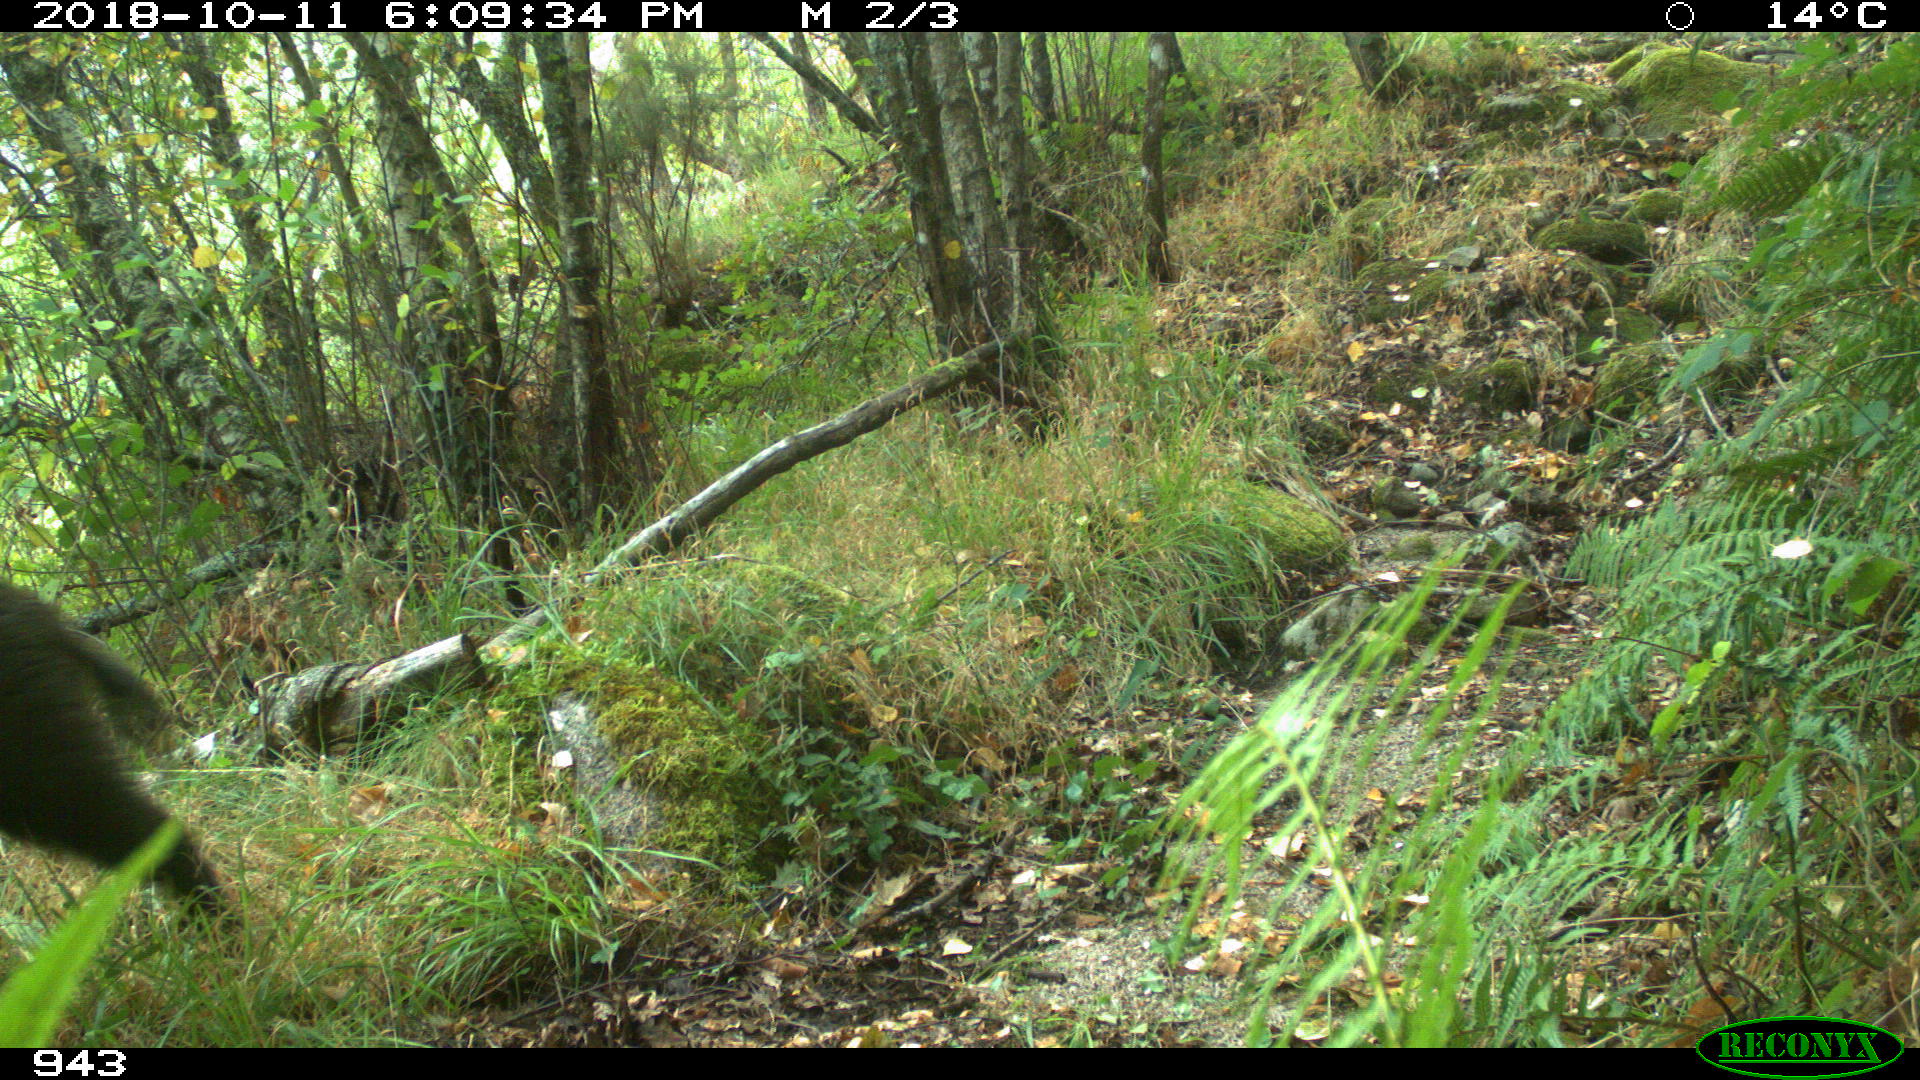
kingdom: Animalia
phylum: Chordata
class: Mammalia
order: Artiodactyla
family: Suidae
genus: Sus
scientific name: Sus scrofa
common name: Wild boar
